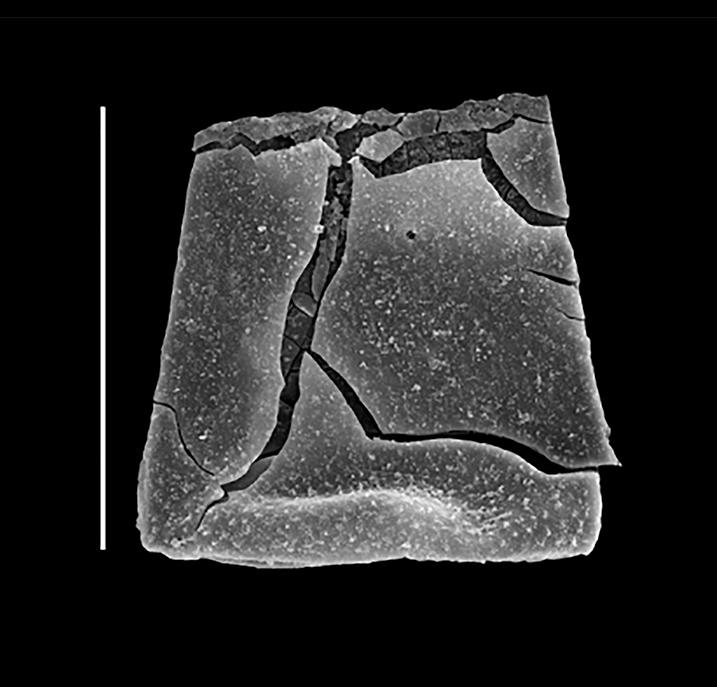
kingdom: Protozoa
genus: Belonechitina
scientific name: Belonechitina
